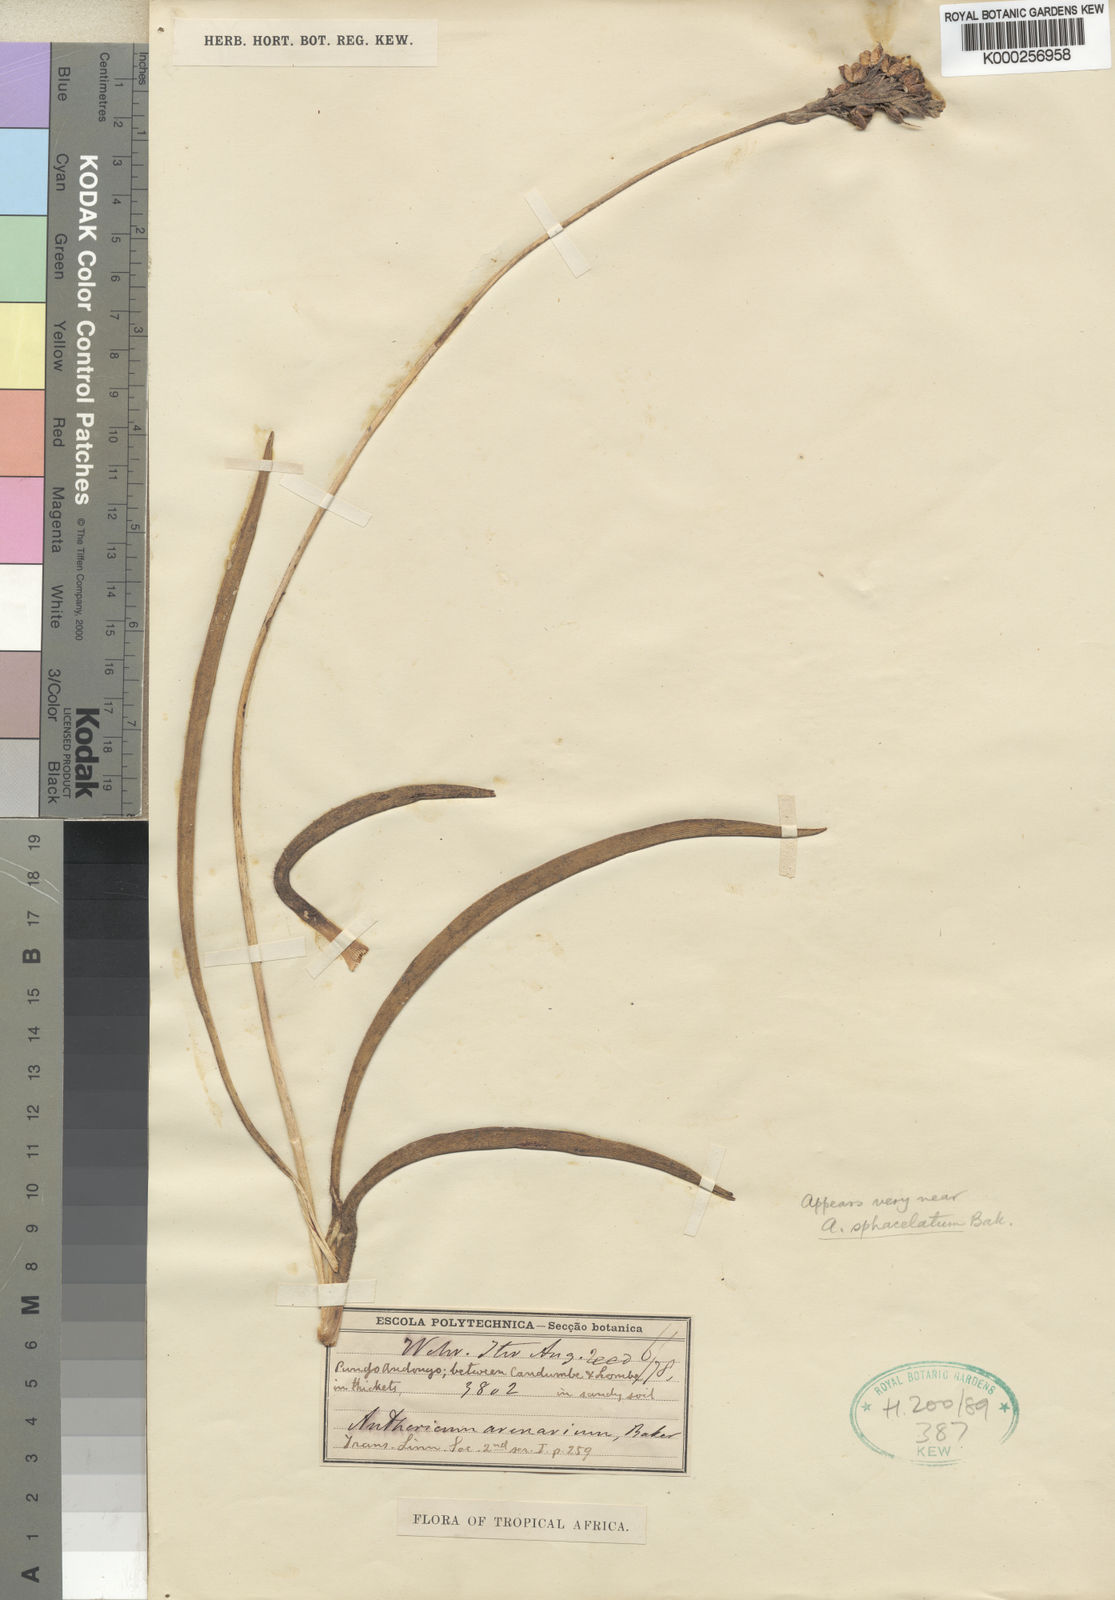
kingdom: Plantae
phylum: Tracheophyta
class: Liliopsida
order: Asparagales
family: Asparagaceae
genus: Chlorophytum
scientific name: Chlorophytum sphacelatum
